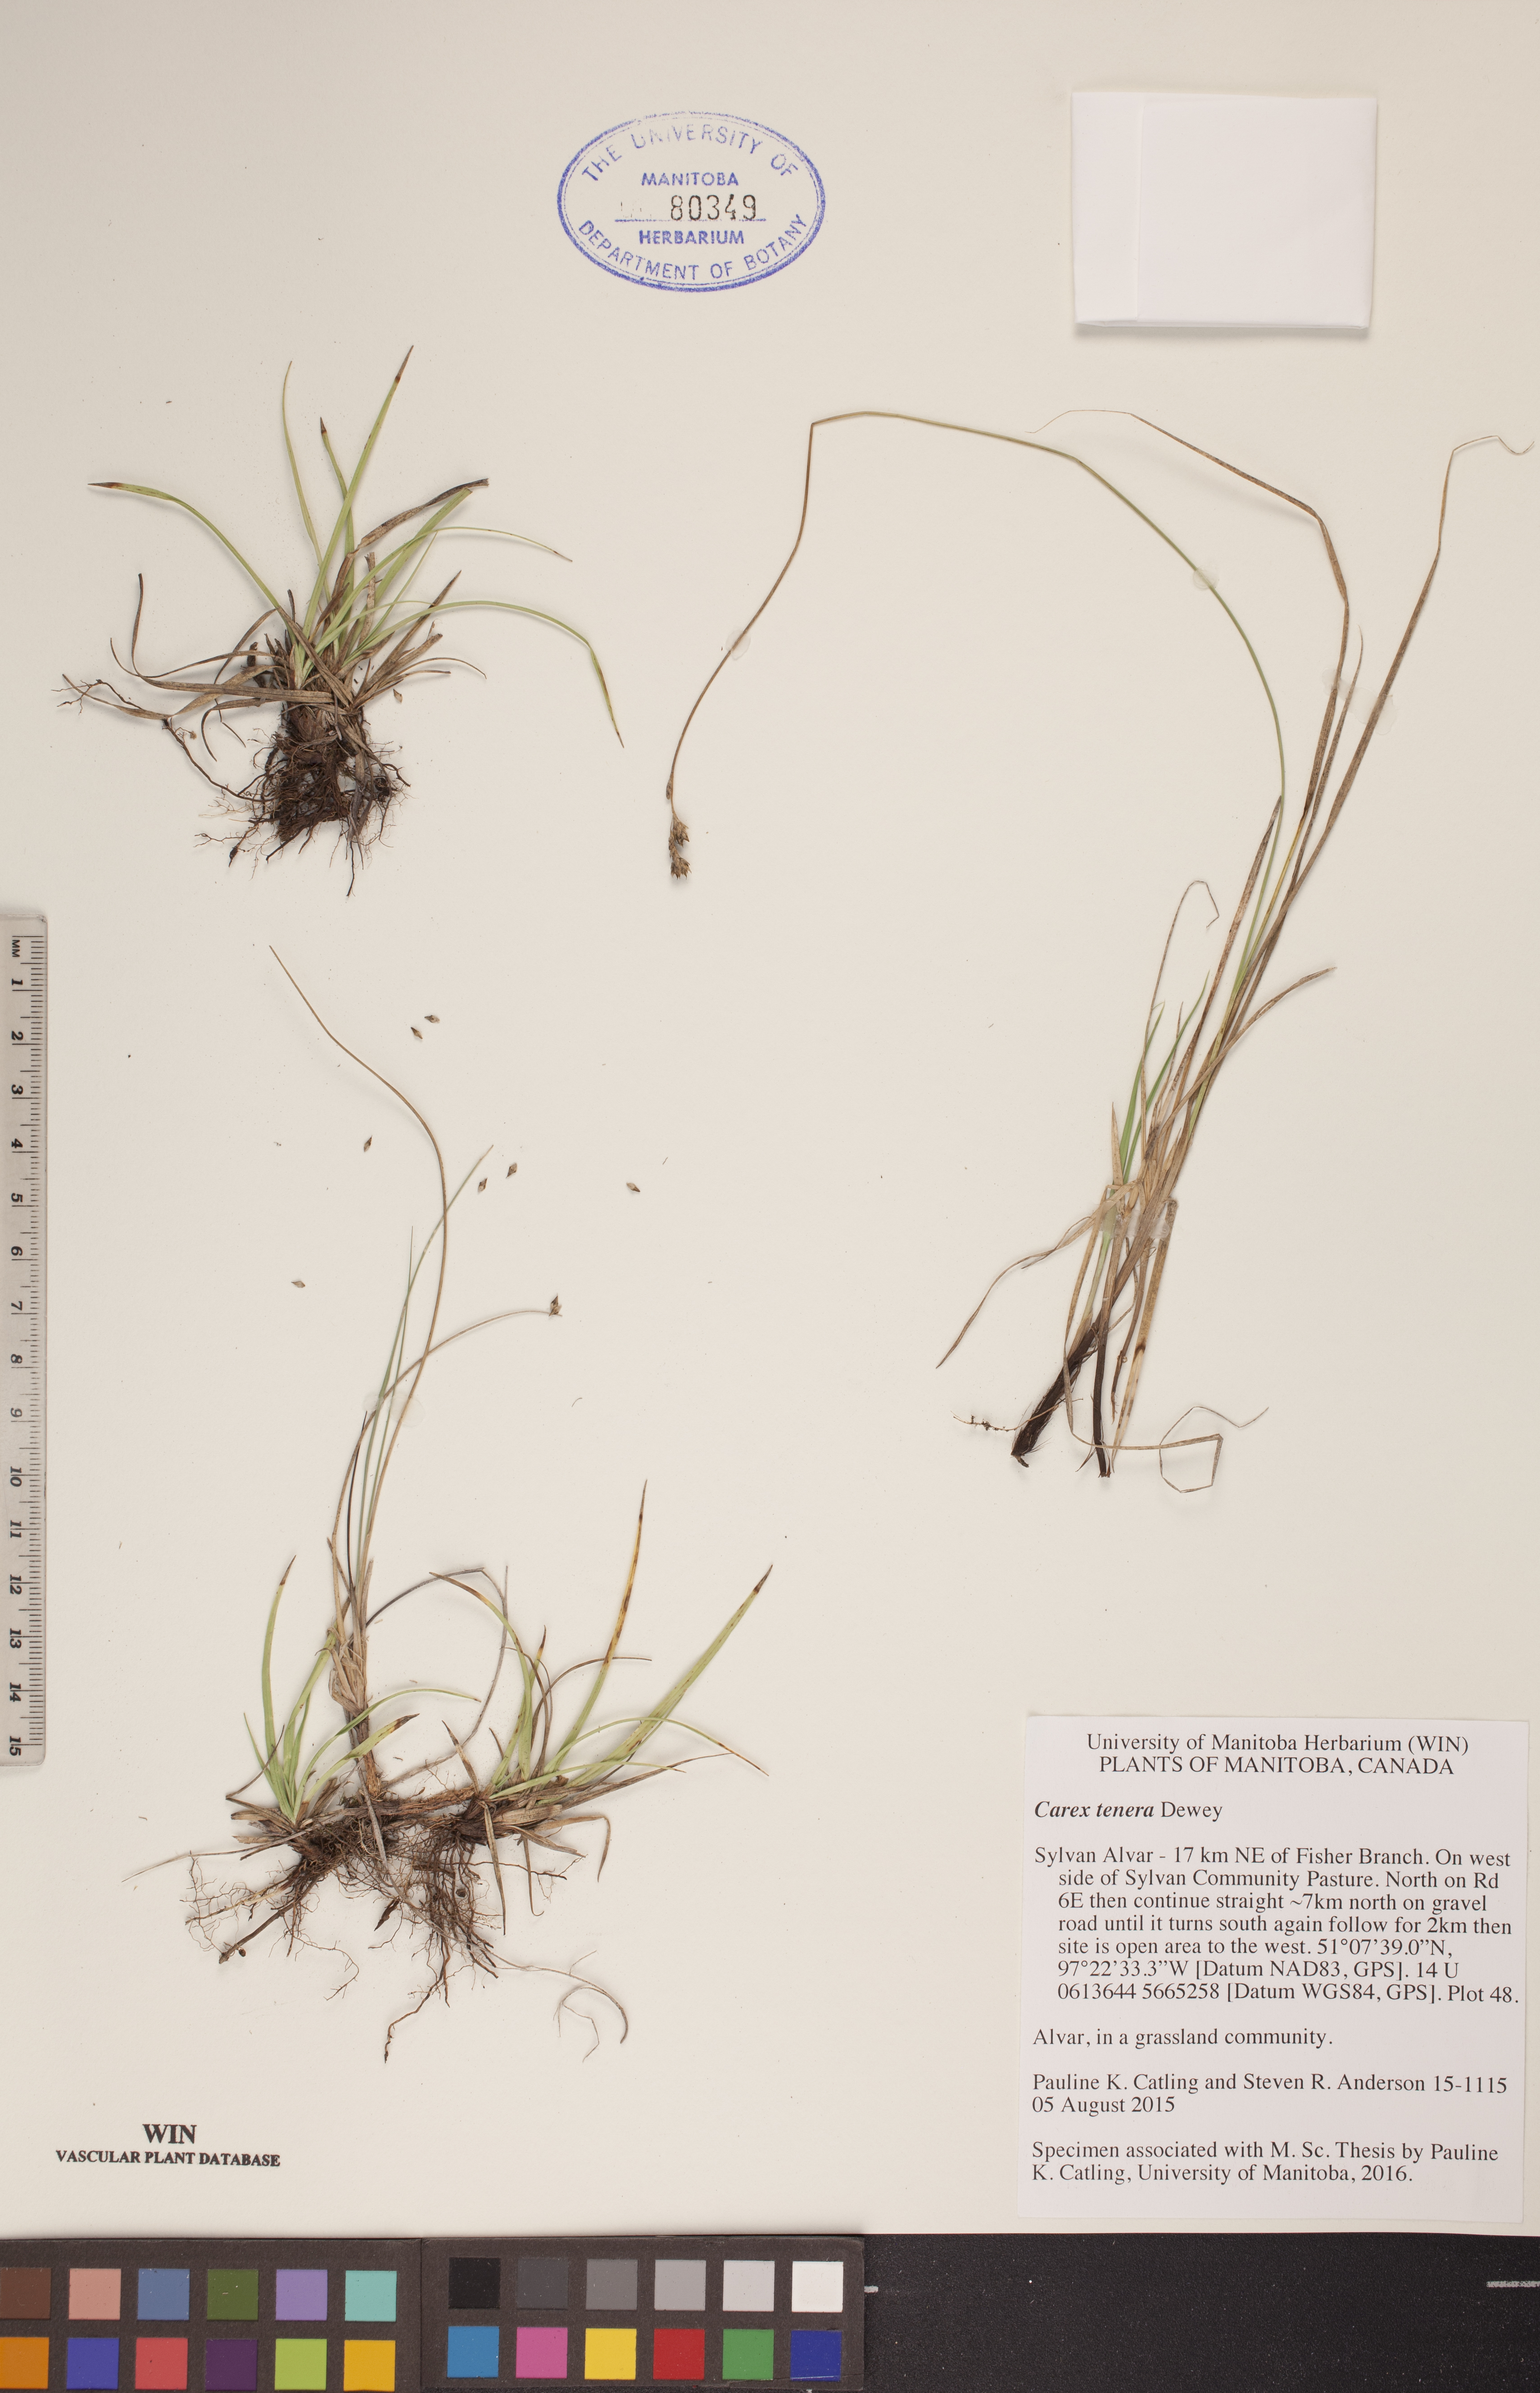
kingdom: Plantae
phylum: Tracheophyta
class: Liliopsida
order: Poales
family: Cyperaceae
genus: Carex
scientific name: Carex tenera
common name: Broad-fruited sedge
